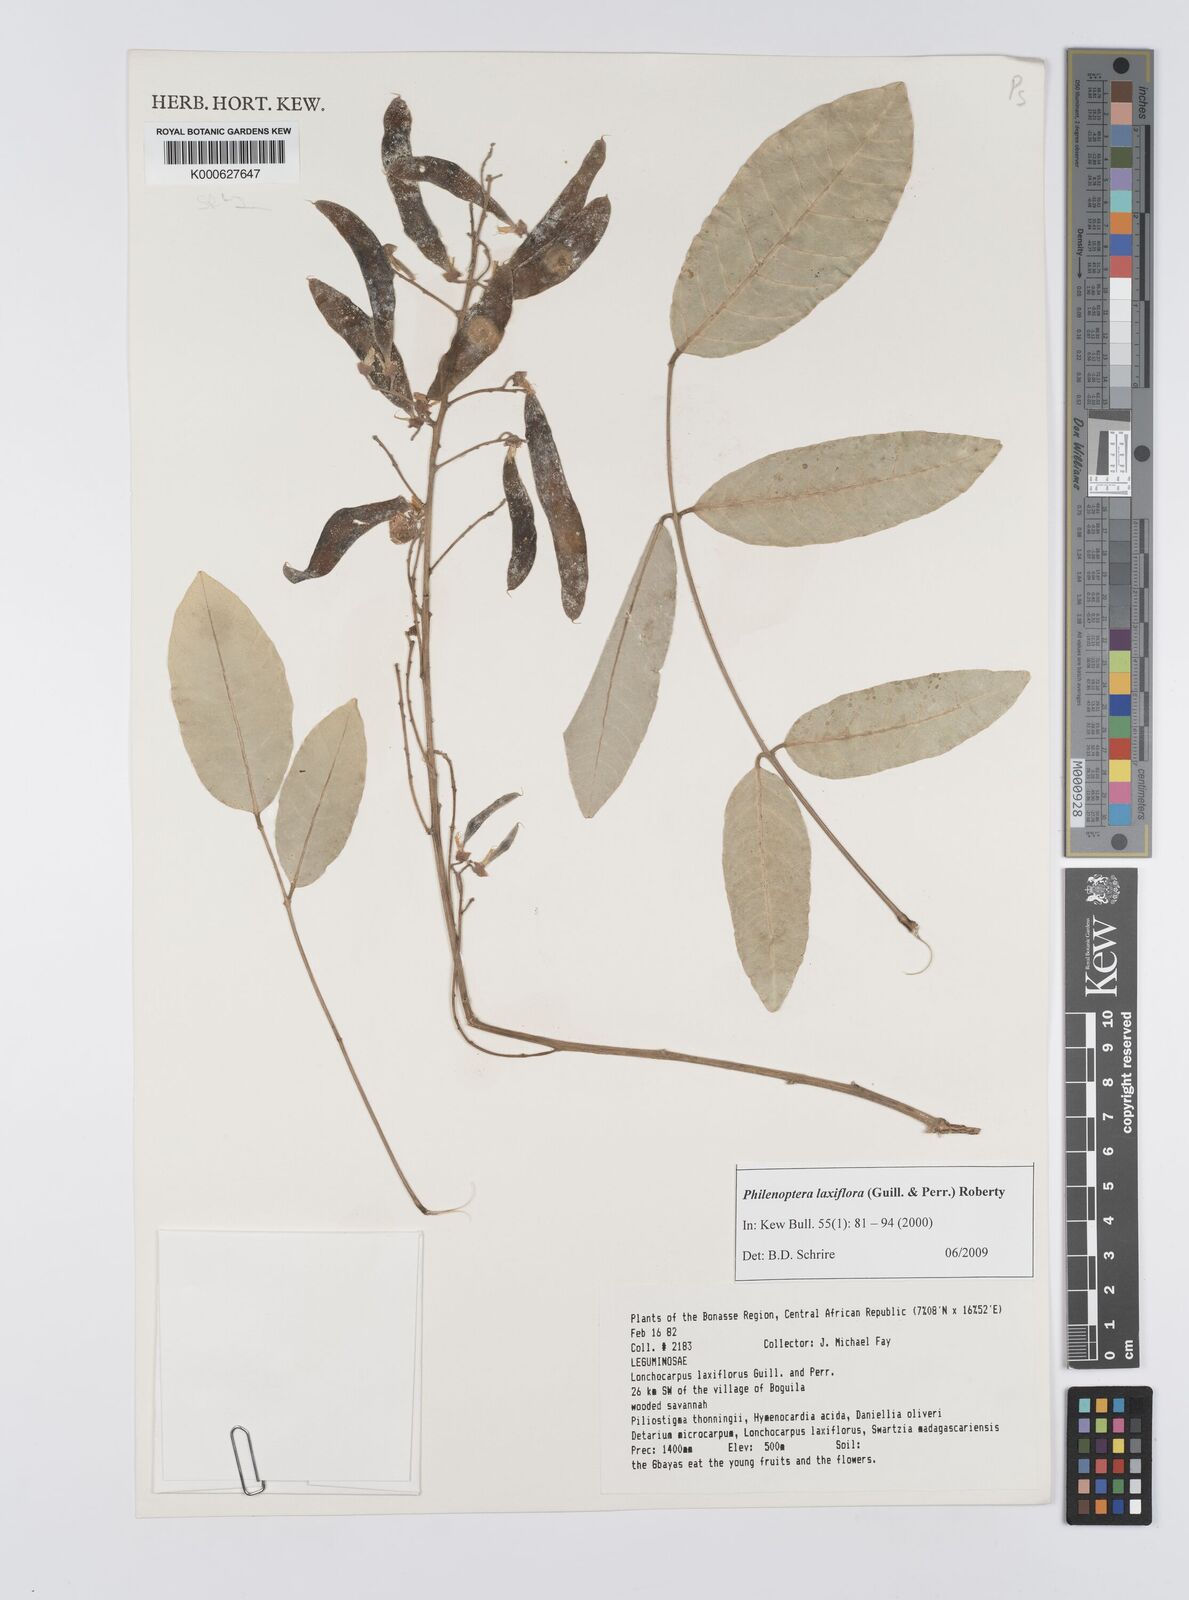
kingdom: Plantae
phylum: Tracheophyta
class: Magnoliopsida
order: Fabales
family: Fabaceae
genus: Philenoptera
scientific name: Philenoptera laxiflora
